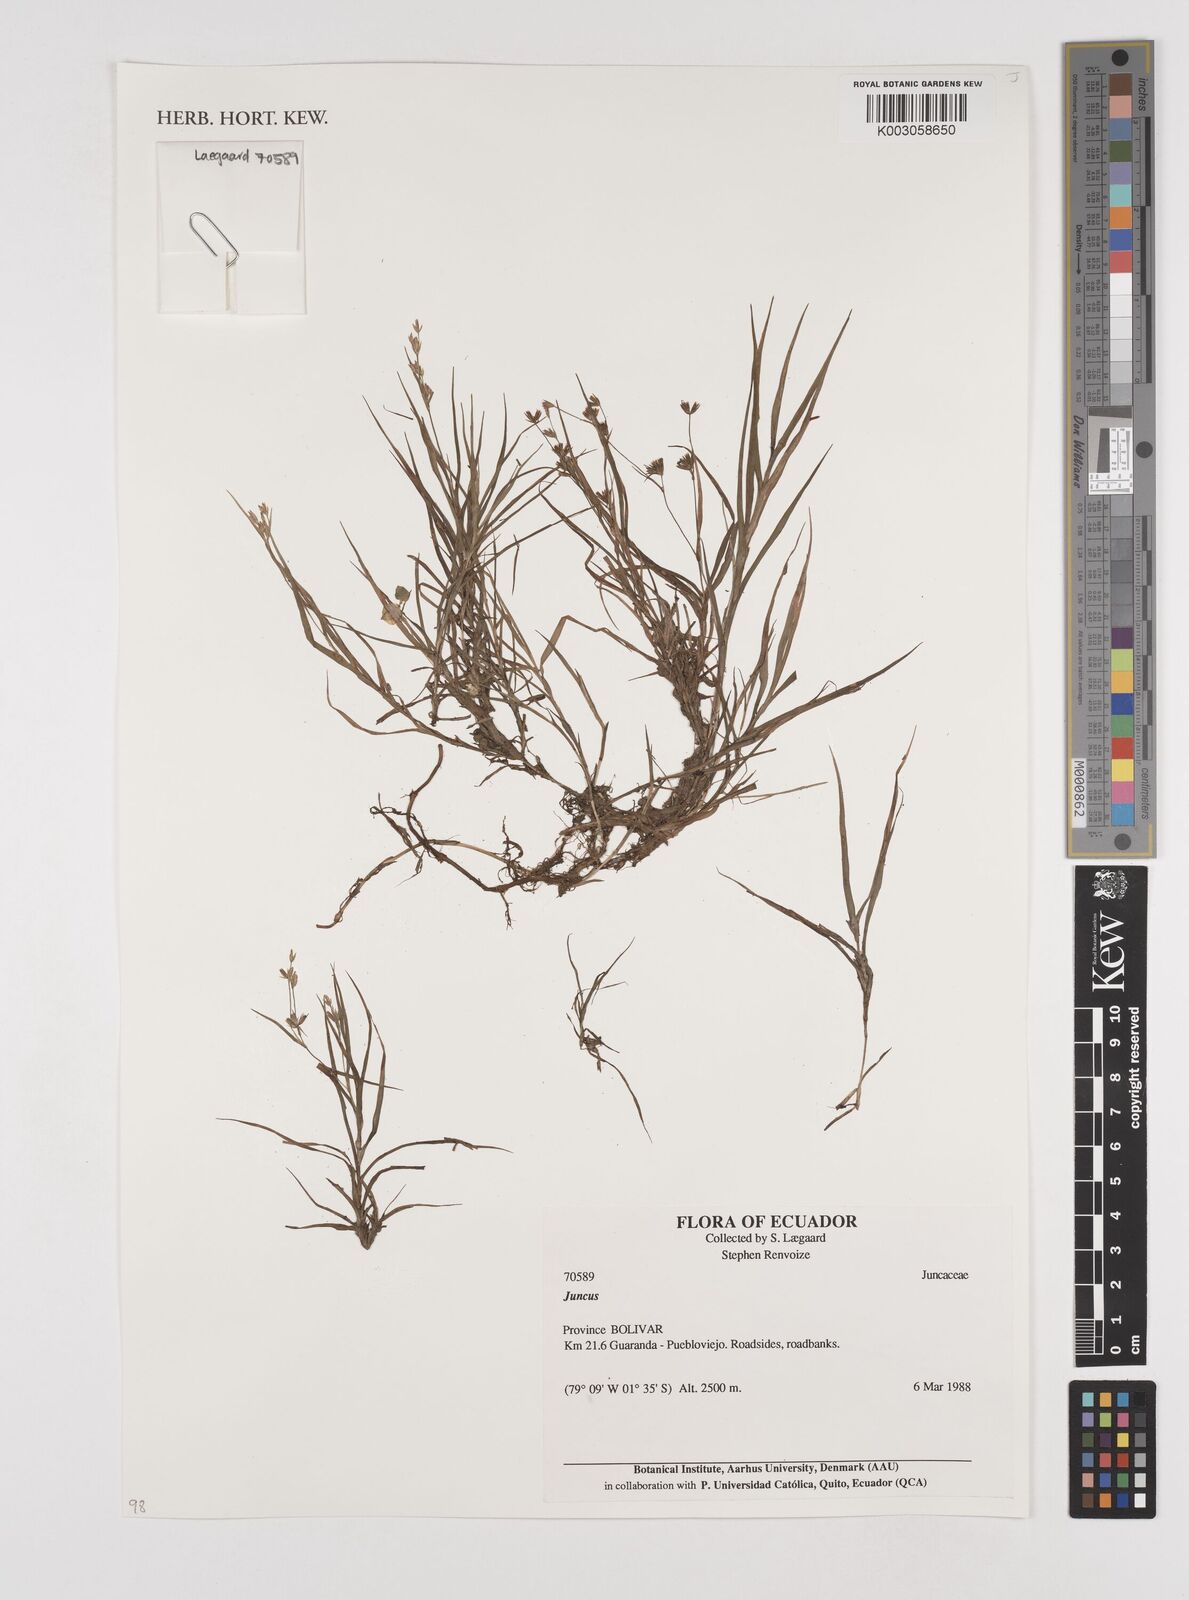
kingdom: Plantae
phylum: Tracheophyta
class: Liliopsida
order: Poales
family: Juncaceae
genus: Juncus
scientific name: Juncus
